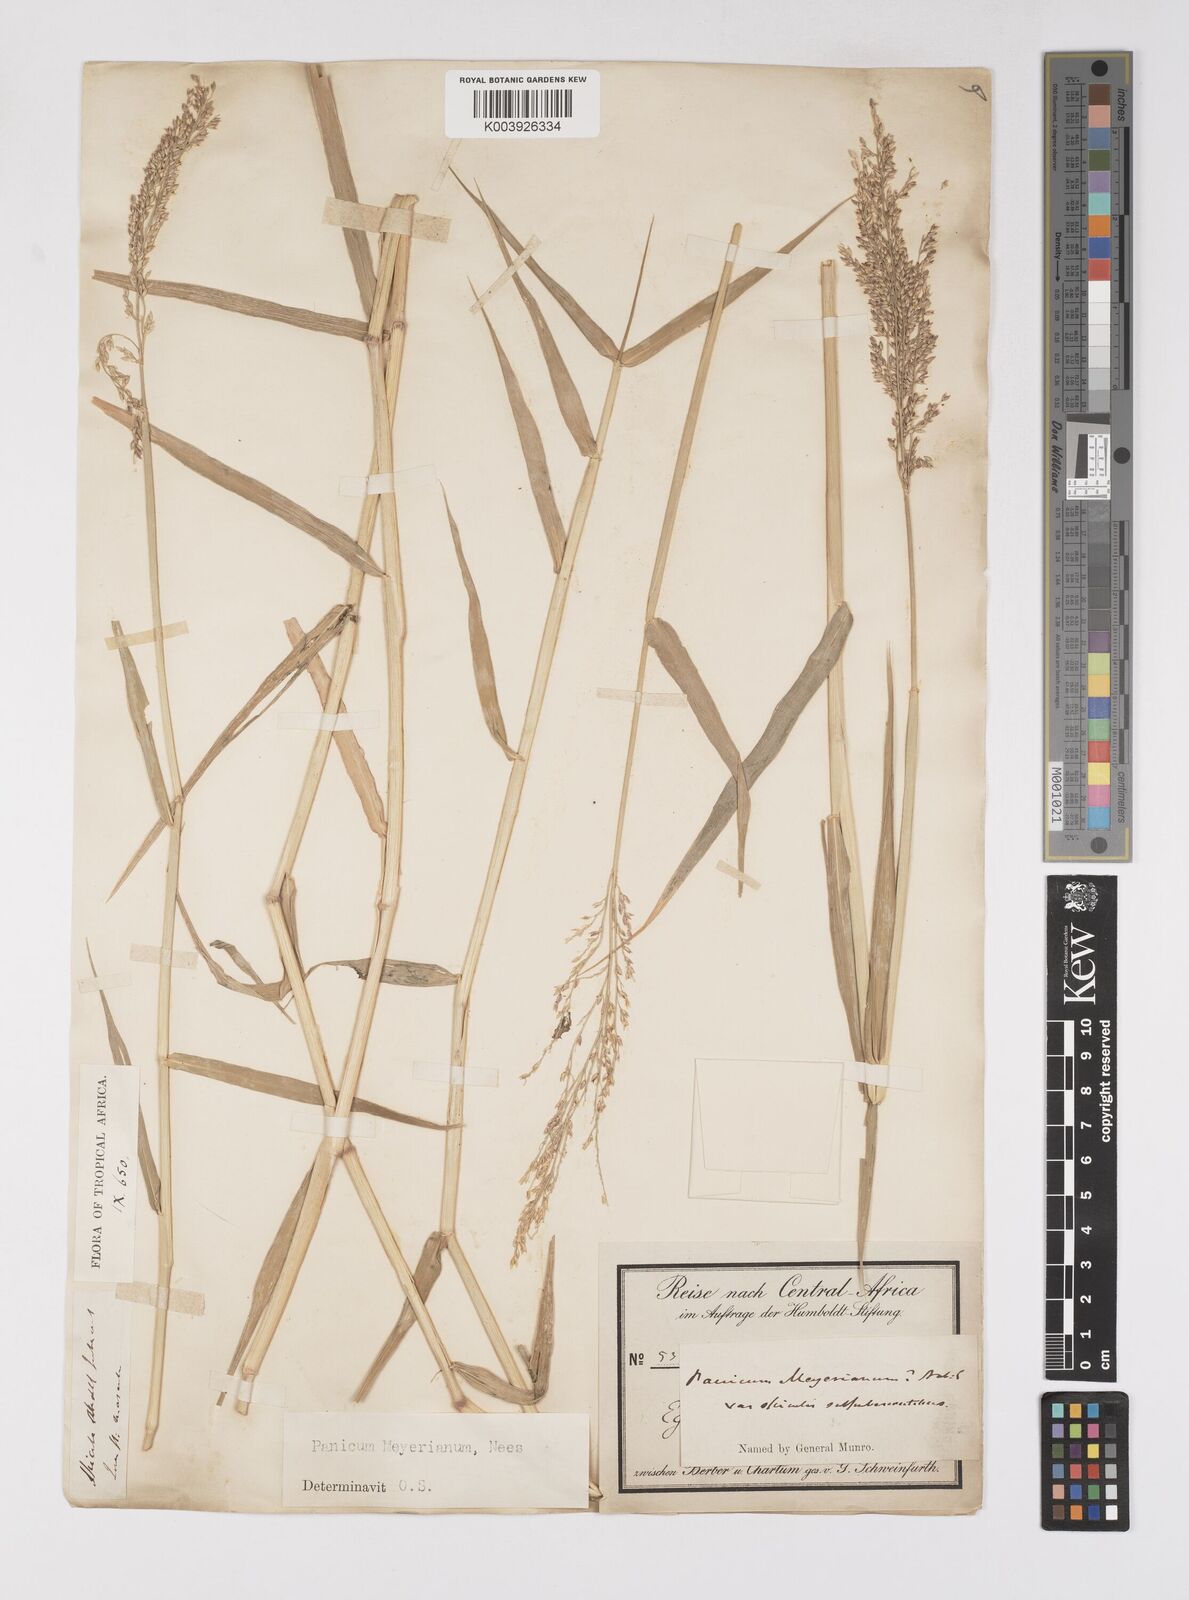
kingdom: Plantae
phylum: Tracheophyta
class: Liliopsida
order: Poales
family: Poaceae
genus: Eriochloa
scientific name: Eriochloa meyeriana
